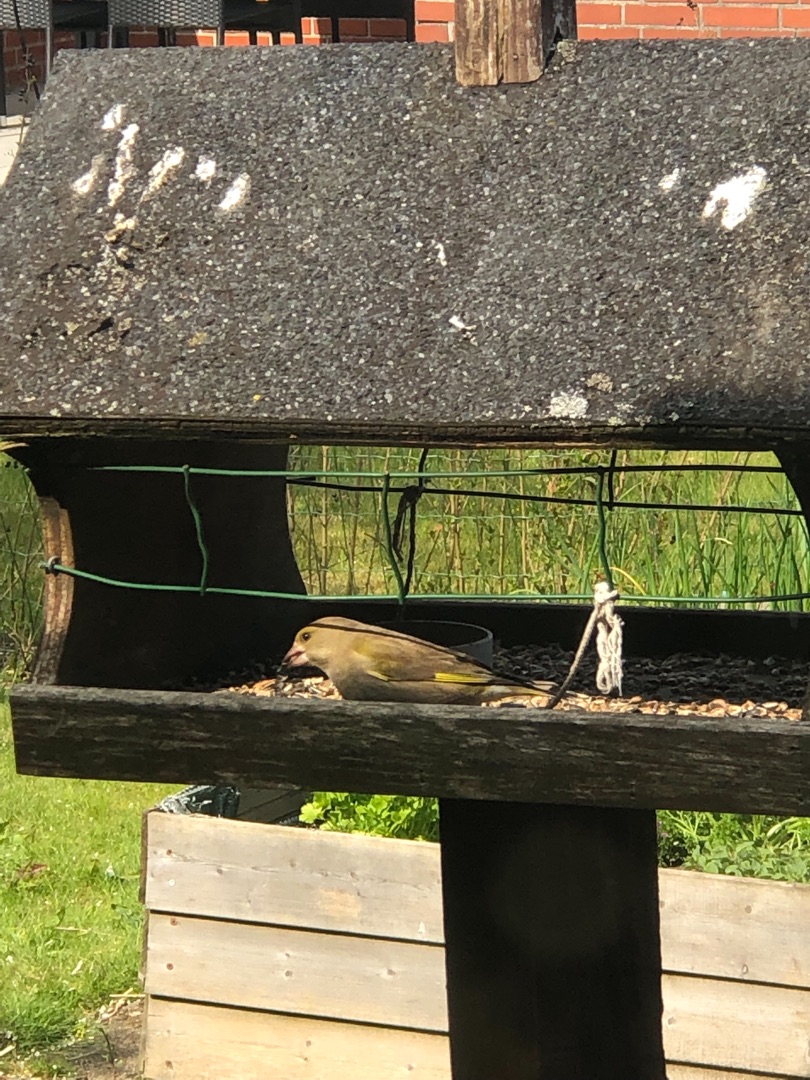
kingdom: Plantae
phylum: Tracheophyta
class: Liliopsida
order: Poales
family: Poaceae
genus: Chloris
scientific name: Chloris chloris
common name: Grønirisk
